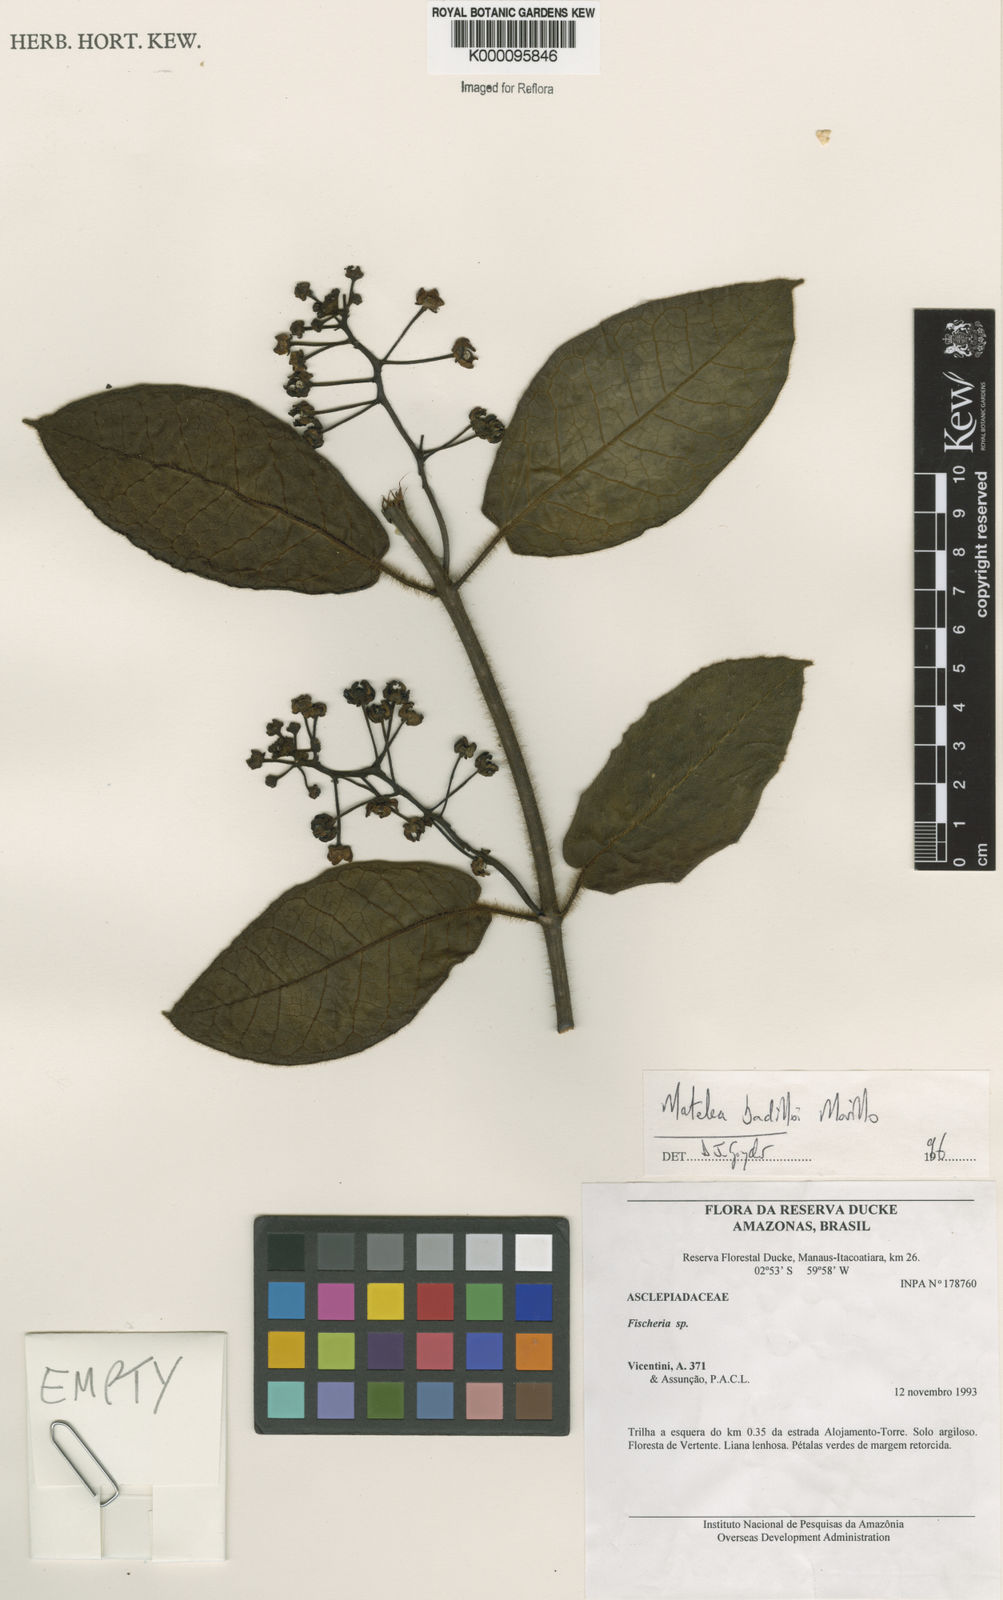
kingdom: Plantae
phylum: Tracheophyta
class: Magnoliopsida
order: Gentianales
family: Apocynaceae
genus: Rhytidostemma
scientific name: Rhytidostemma badilloi
